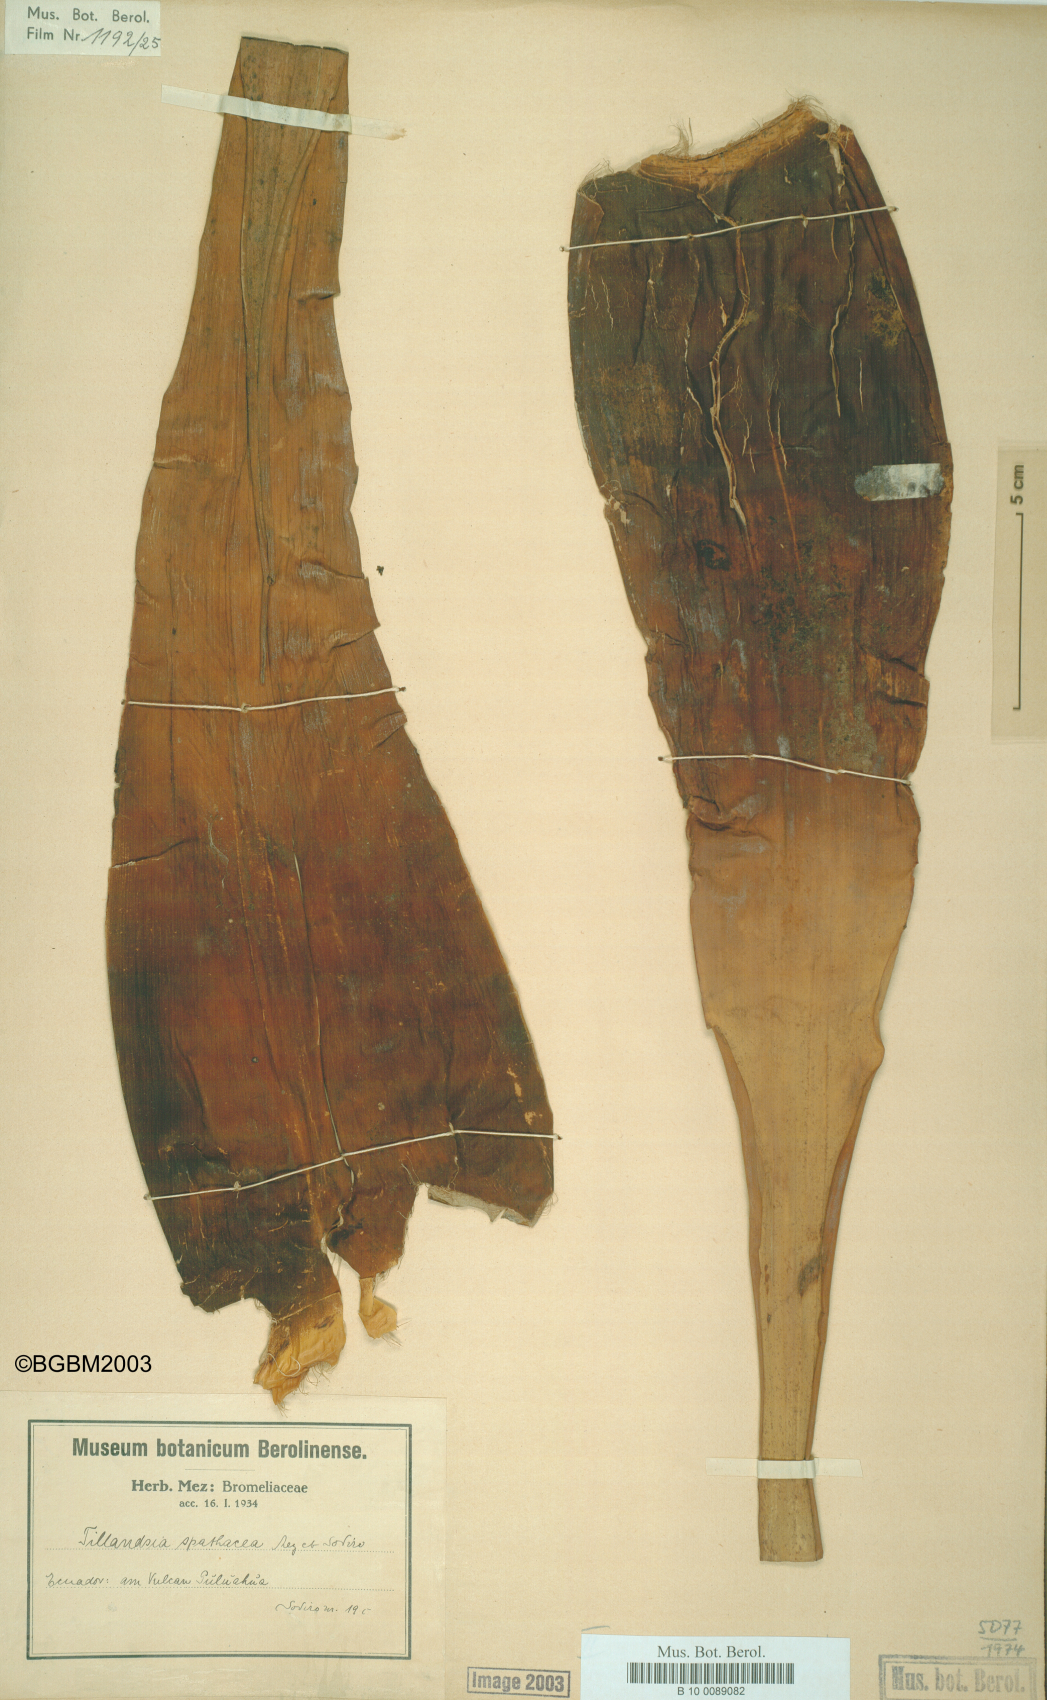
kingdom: Plantae
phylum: Tracheophyta
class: Liliopsida
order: Poales
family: Bromeliaceae
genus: Tillandsia
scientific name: Tillandsia spathacea
